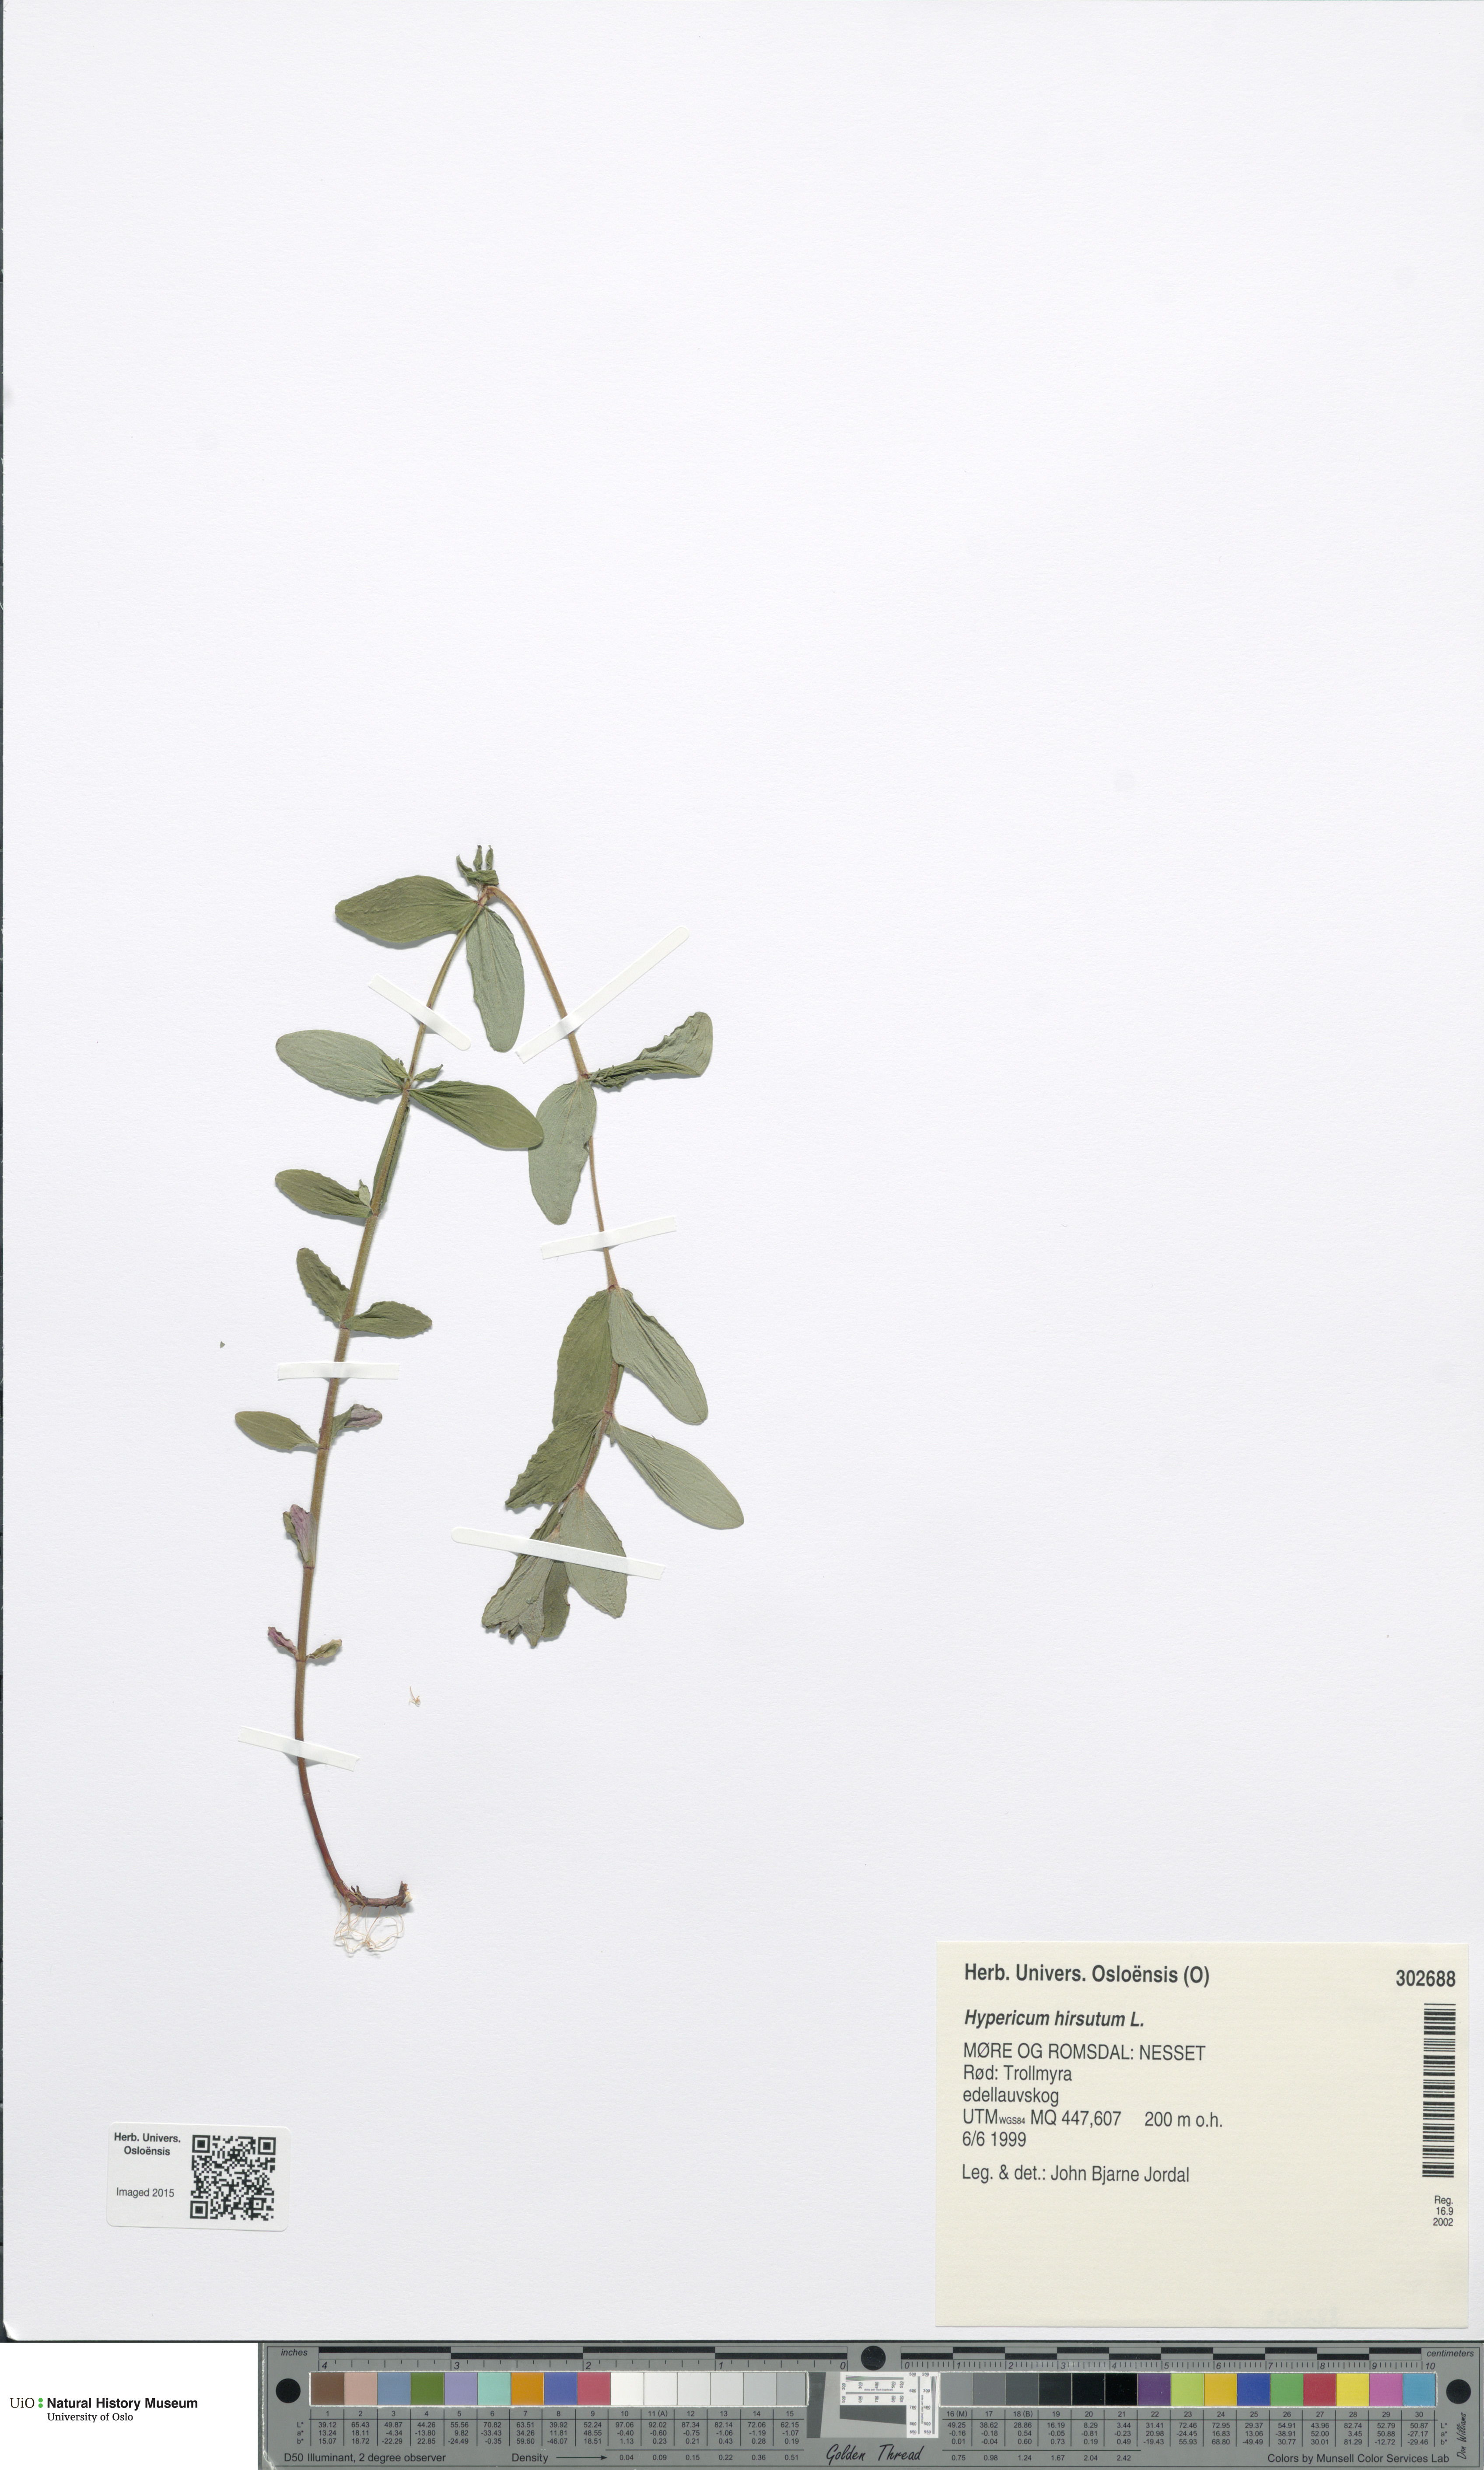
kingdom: Plantae
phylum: Tracheophyta
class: Magnoliopsida
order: Malpighiales
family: Hypericaceae
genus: Hypericum
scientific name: Hypericum hirsutum
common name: Hairy st. john's-wort
